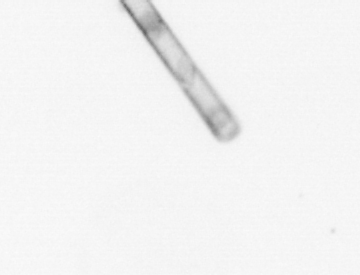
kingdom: Chromista
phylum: Ochrophyta
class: Bacillariophyceae
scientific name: Bacillariophyceae
